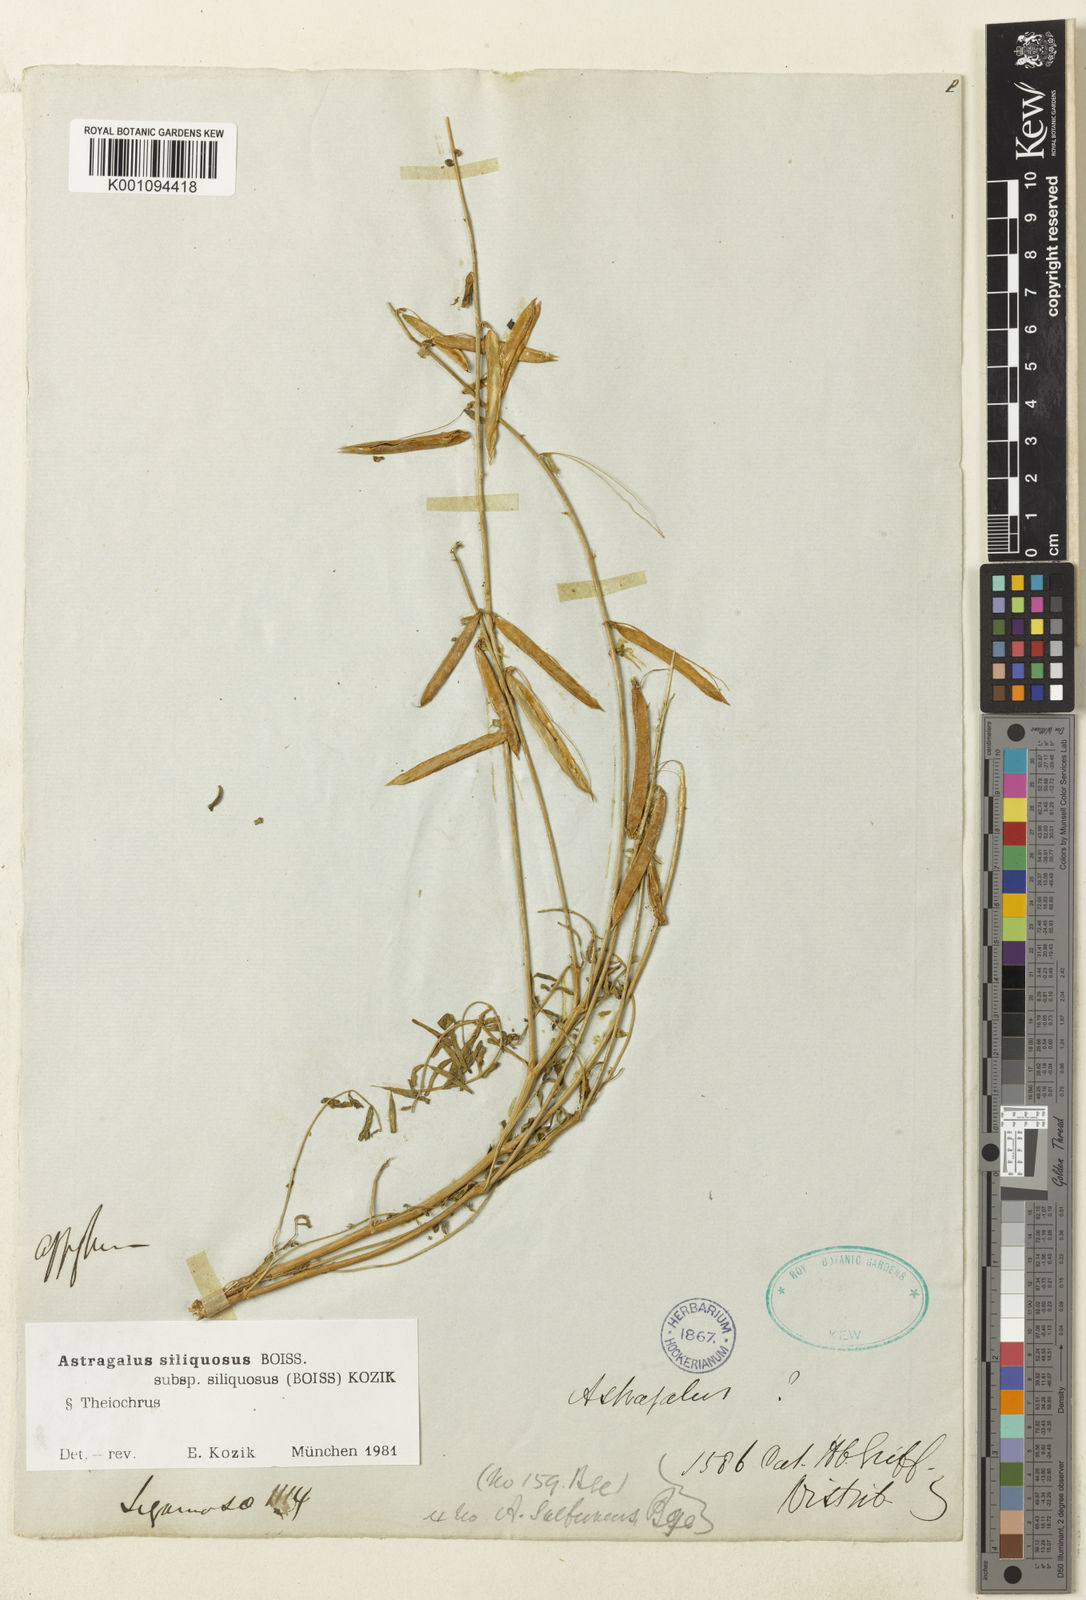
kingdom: Plantae
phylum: Tracheophyta
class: Magnoliopsida
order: Fabales
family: Fabaceae
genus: Astragalus
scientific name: Astragalus
